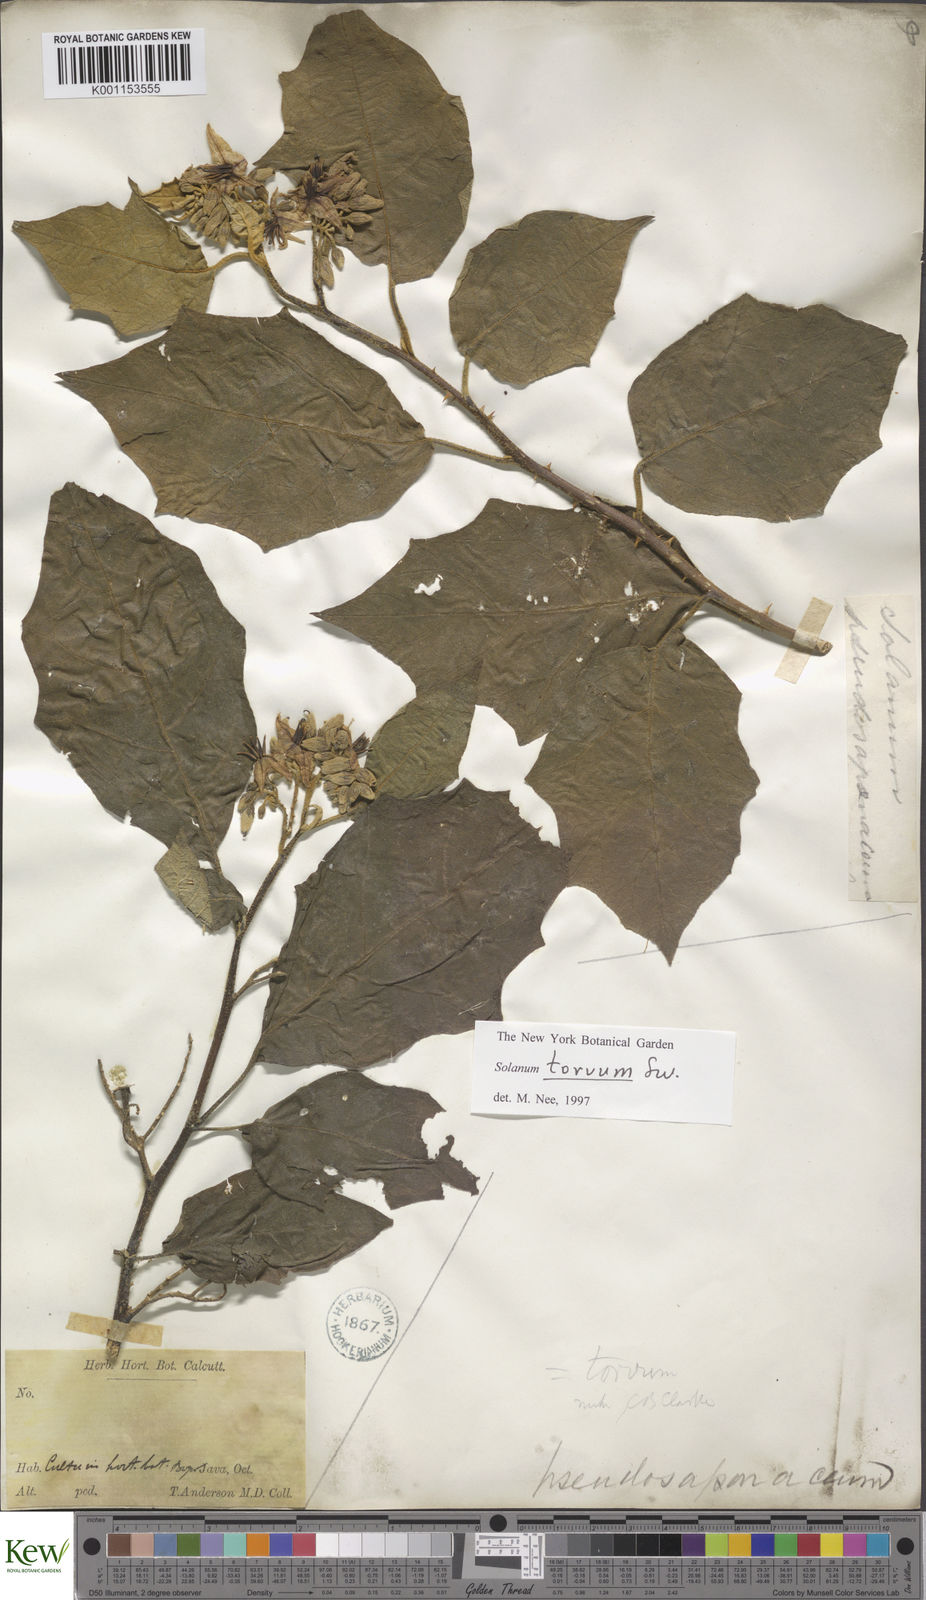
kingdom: Plantae
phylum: Tracheophyta
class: Magnoliopsida
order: Solanales
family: Solanaceae
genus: Solanum
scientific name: Solanum torvum
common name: Turkey berry
